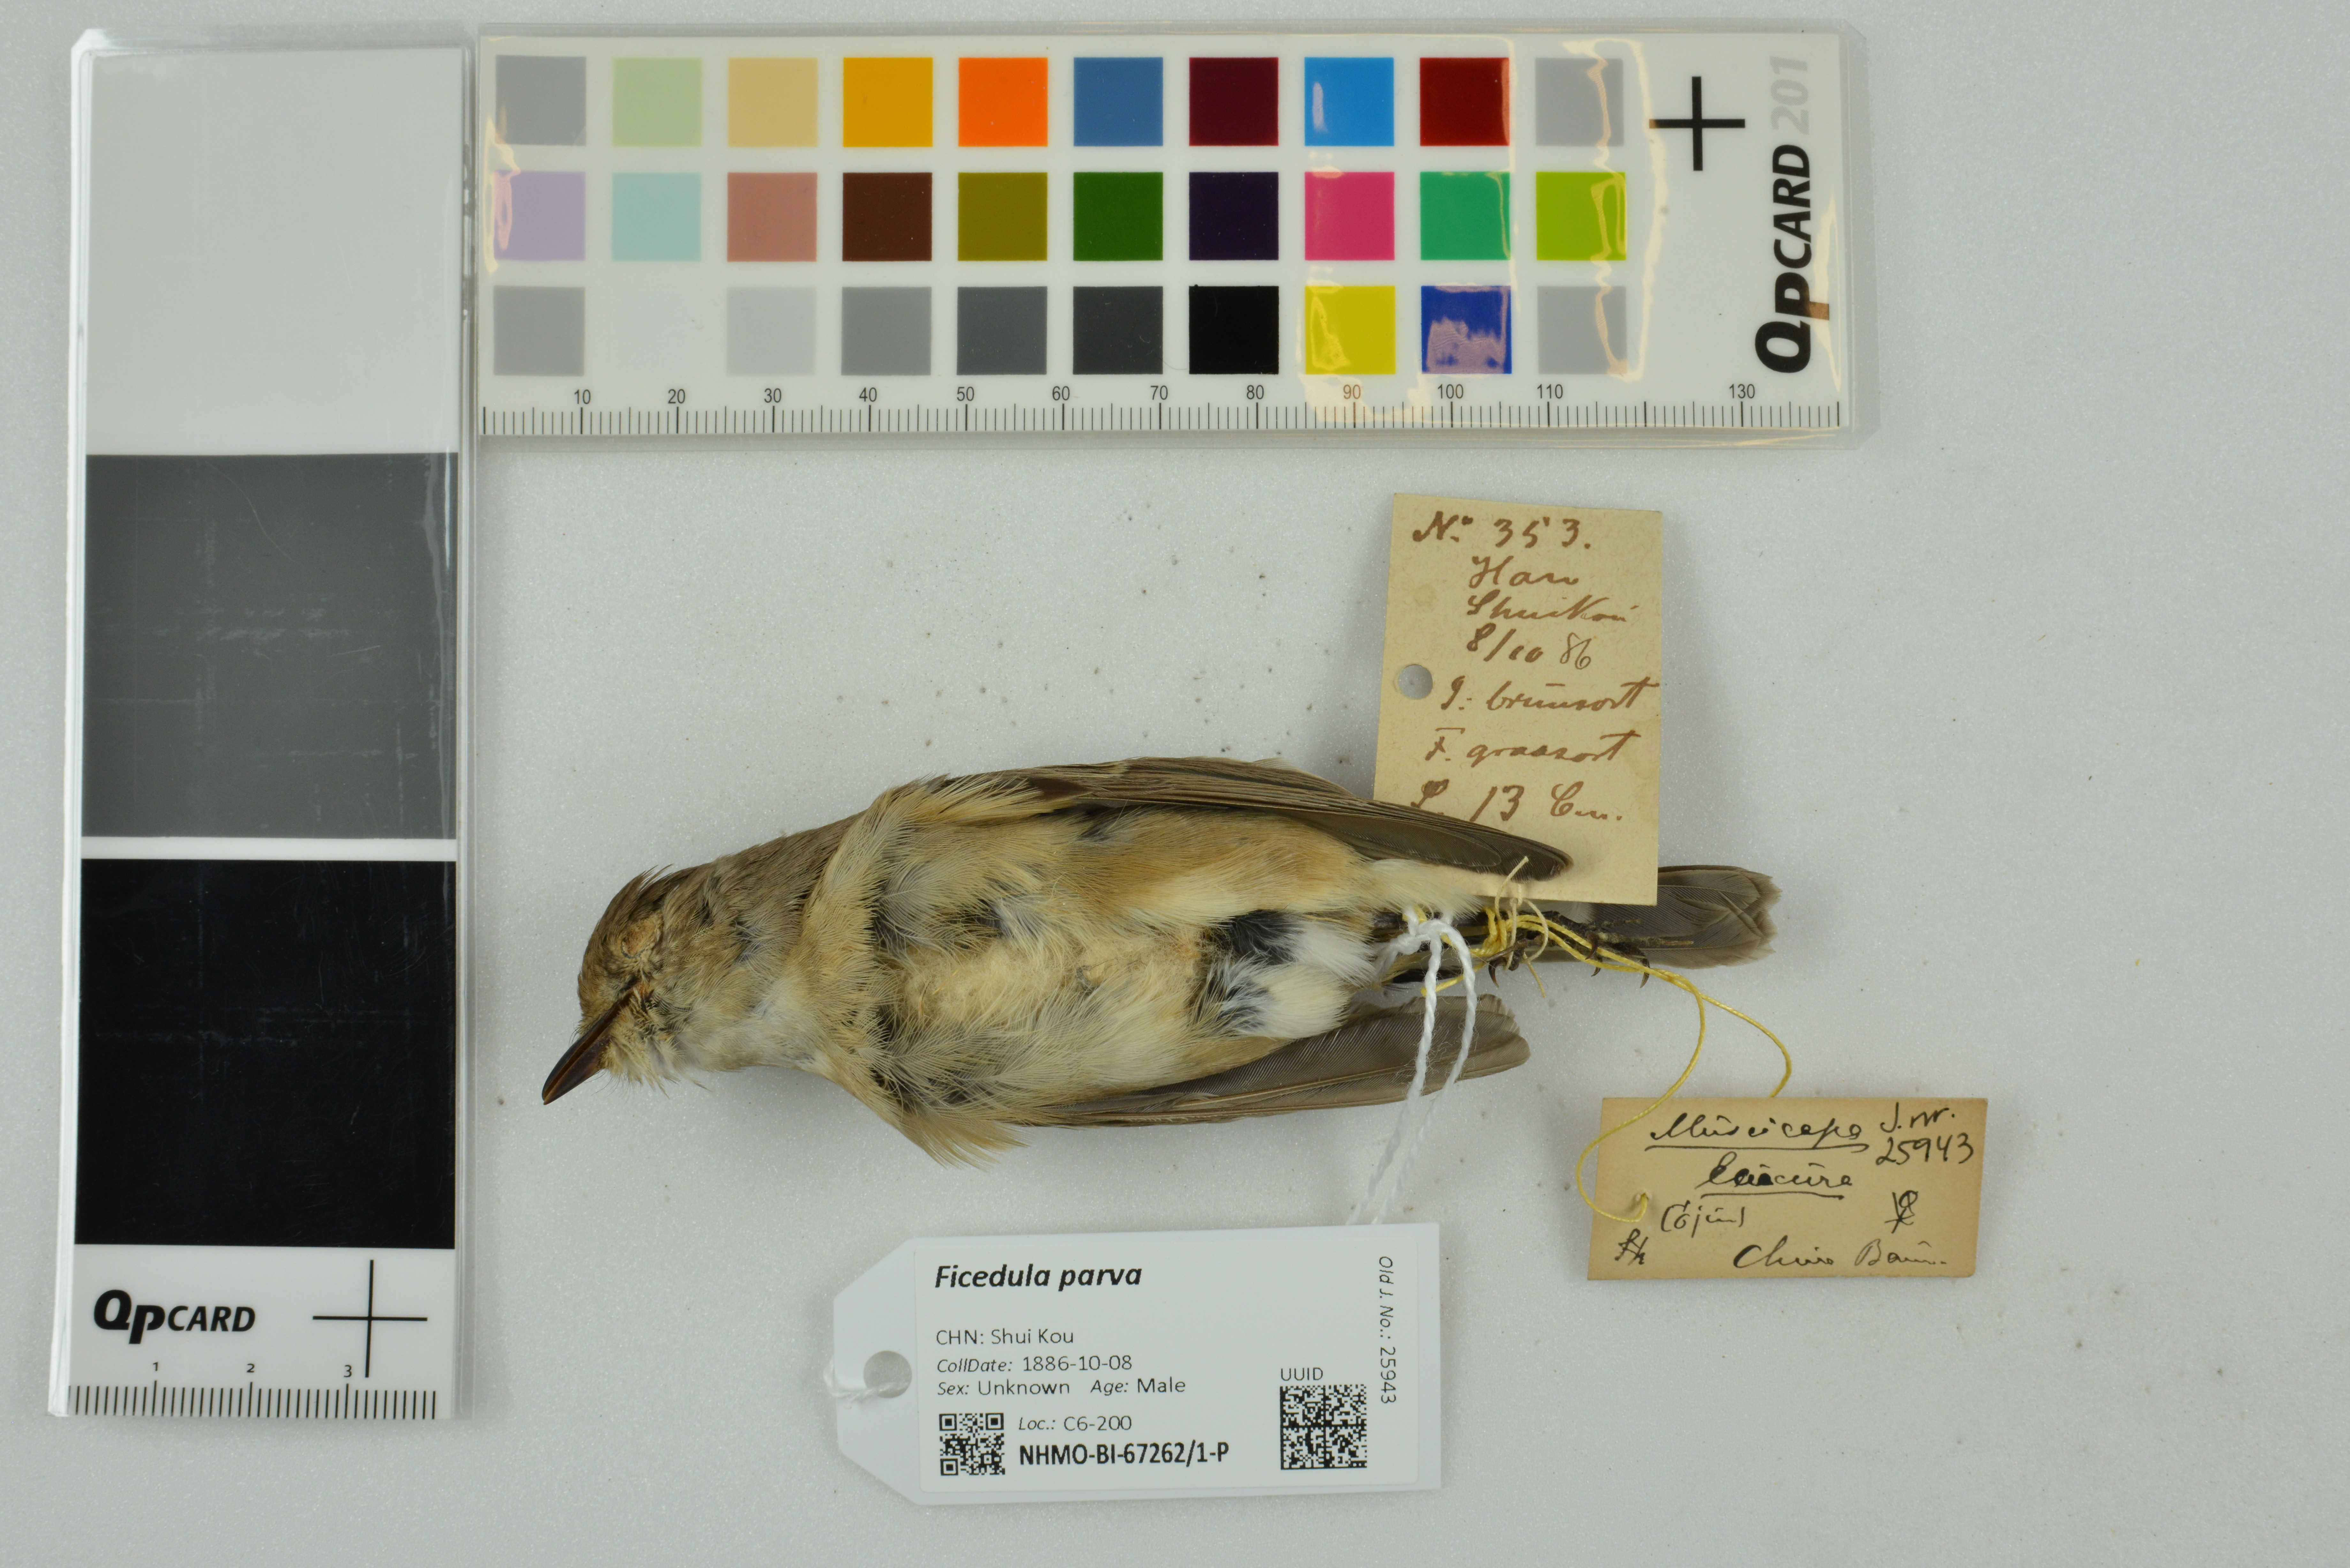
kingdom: Animalia
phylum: Chordata
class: Aves
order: Passeriformes
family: Muscicapidae
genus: Ficedula
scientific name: Ficedula parva
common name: Red-breasted flycatcher
